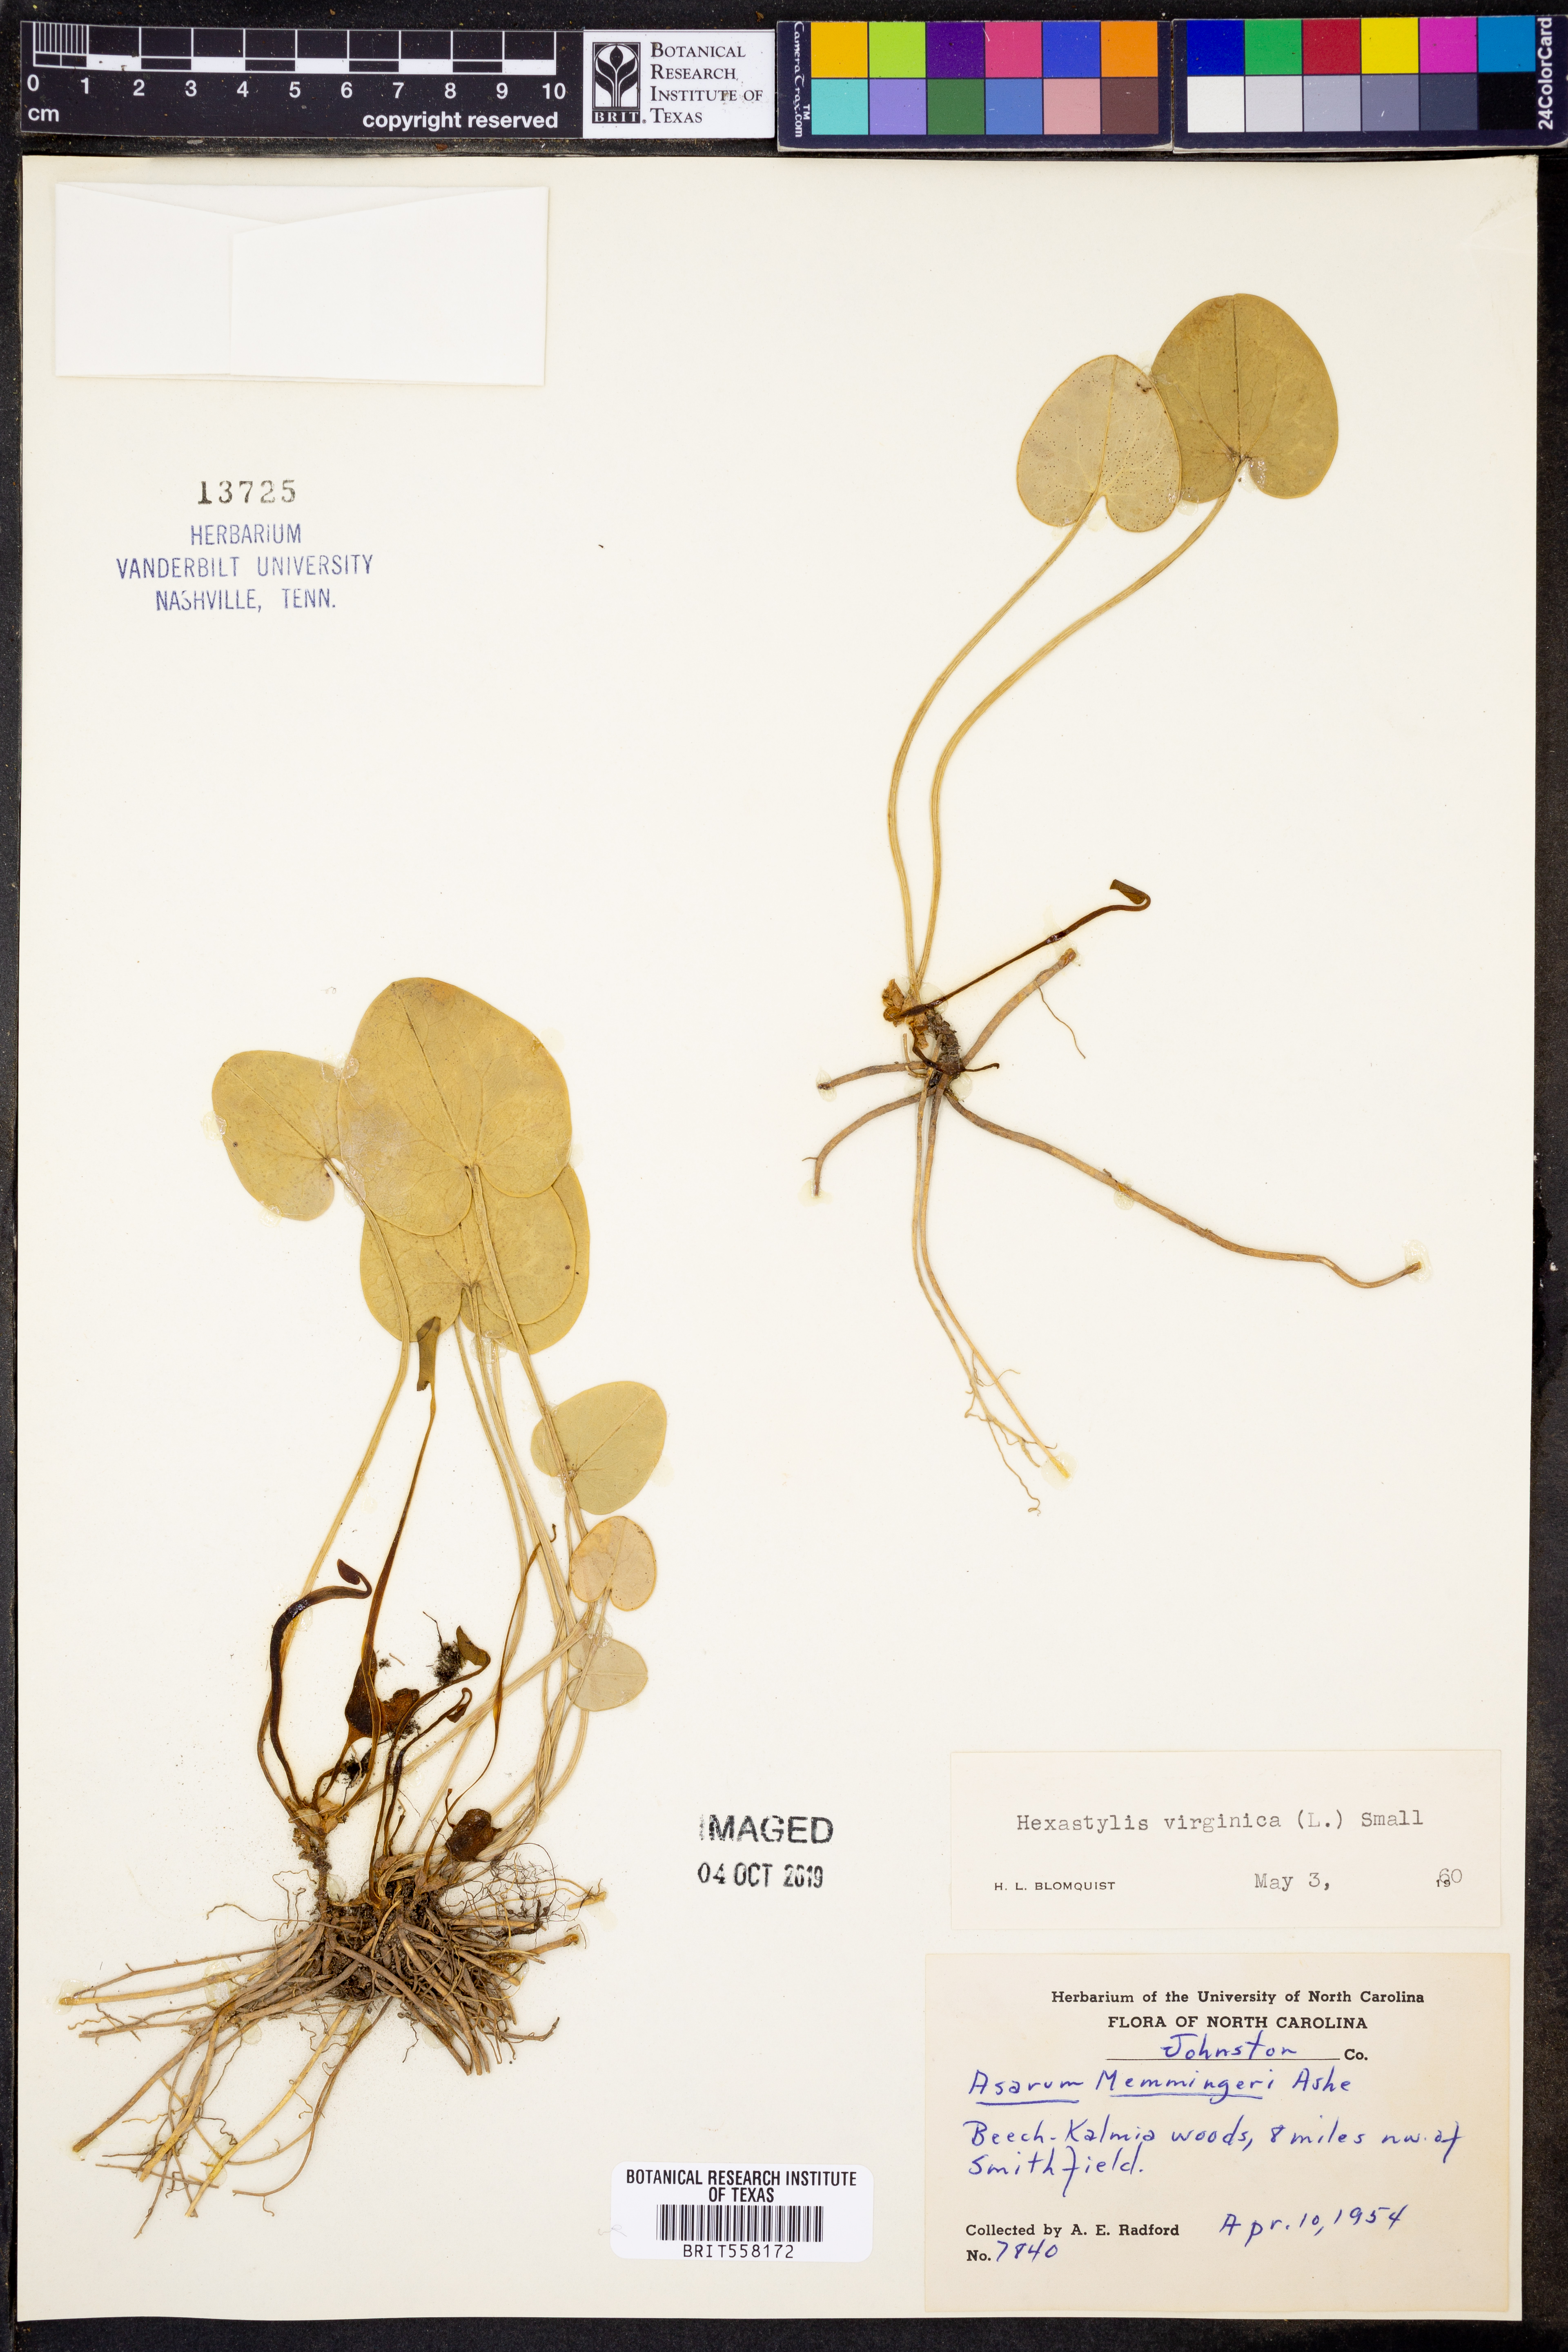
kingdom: Plantae
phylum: Tracheophyta
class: Magnoliopsida
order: Piperales
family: Aristolochiaceae
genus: Hexastylis
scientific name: Hexastylis virginica
